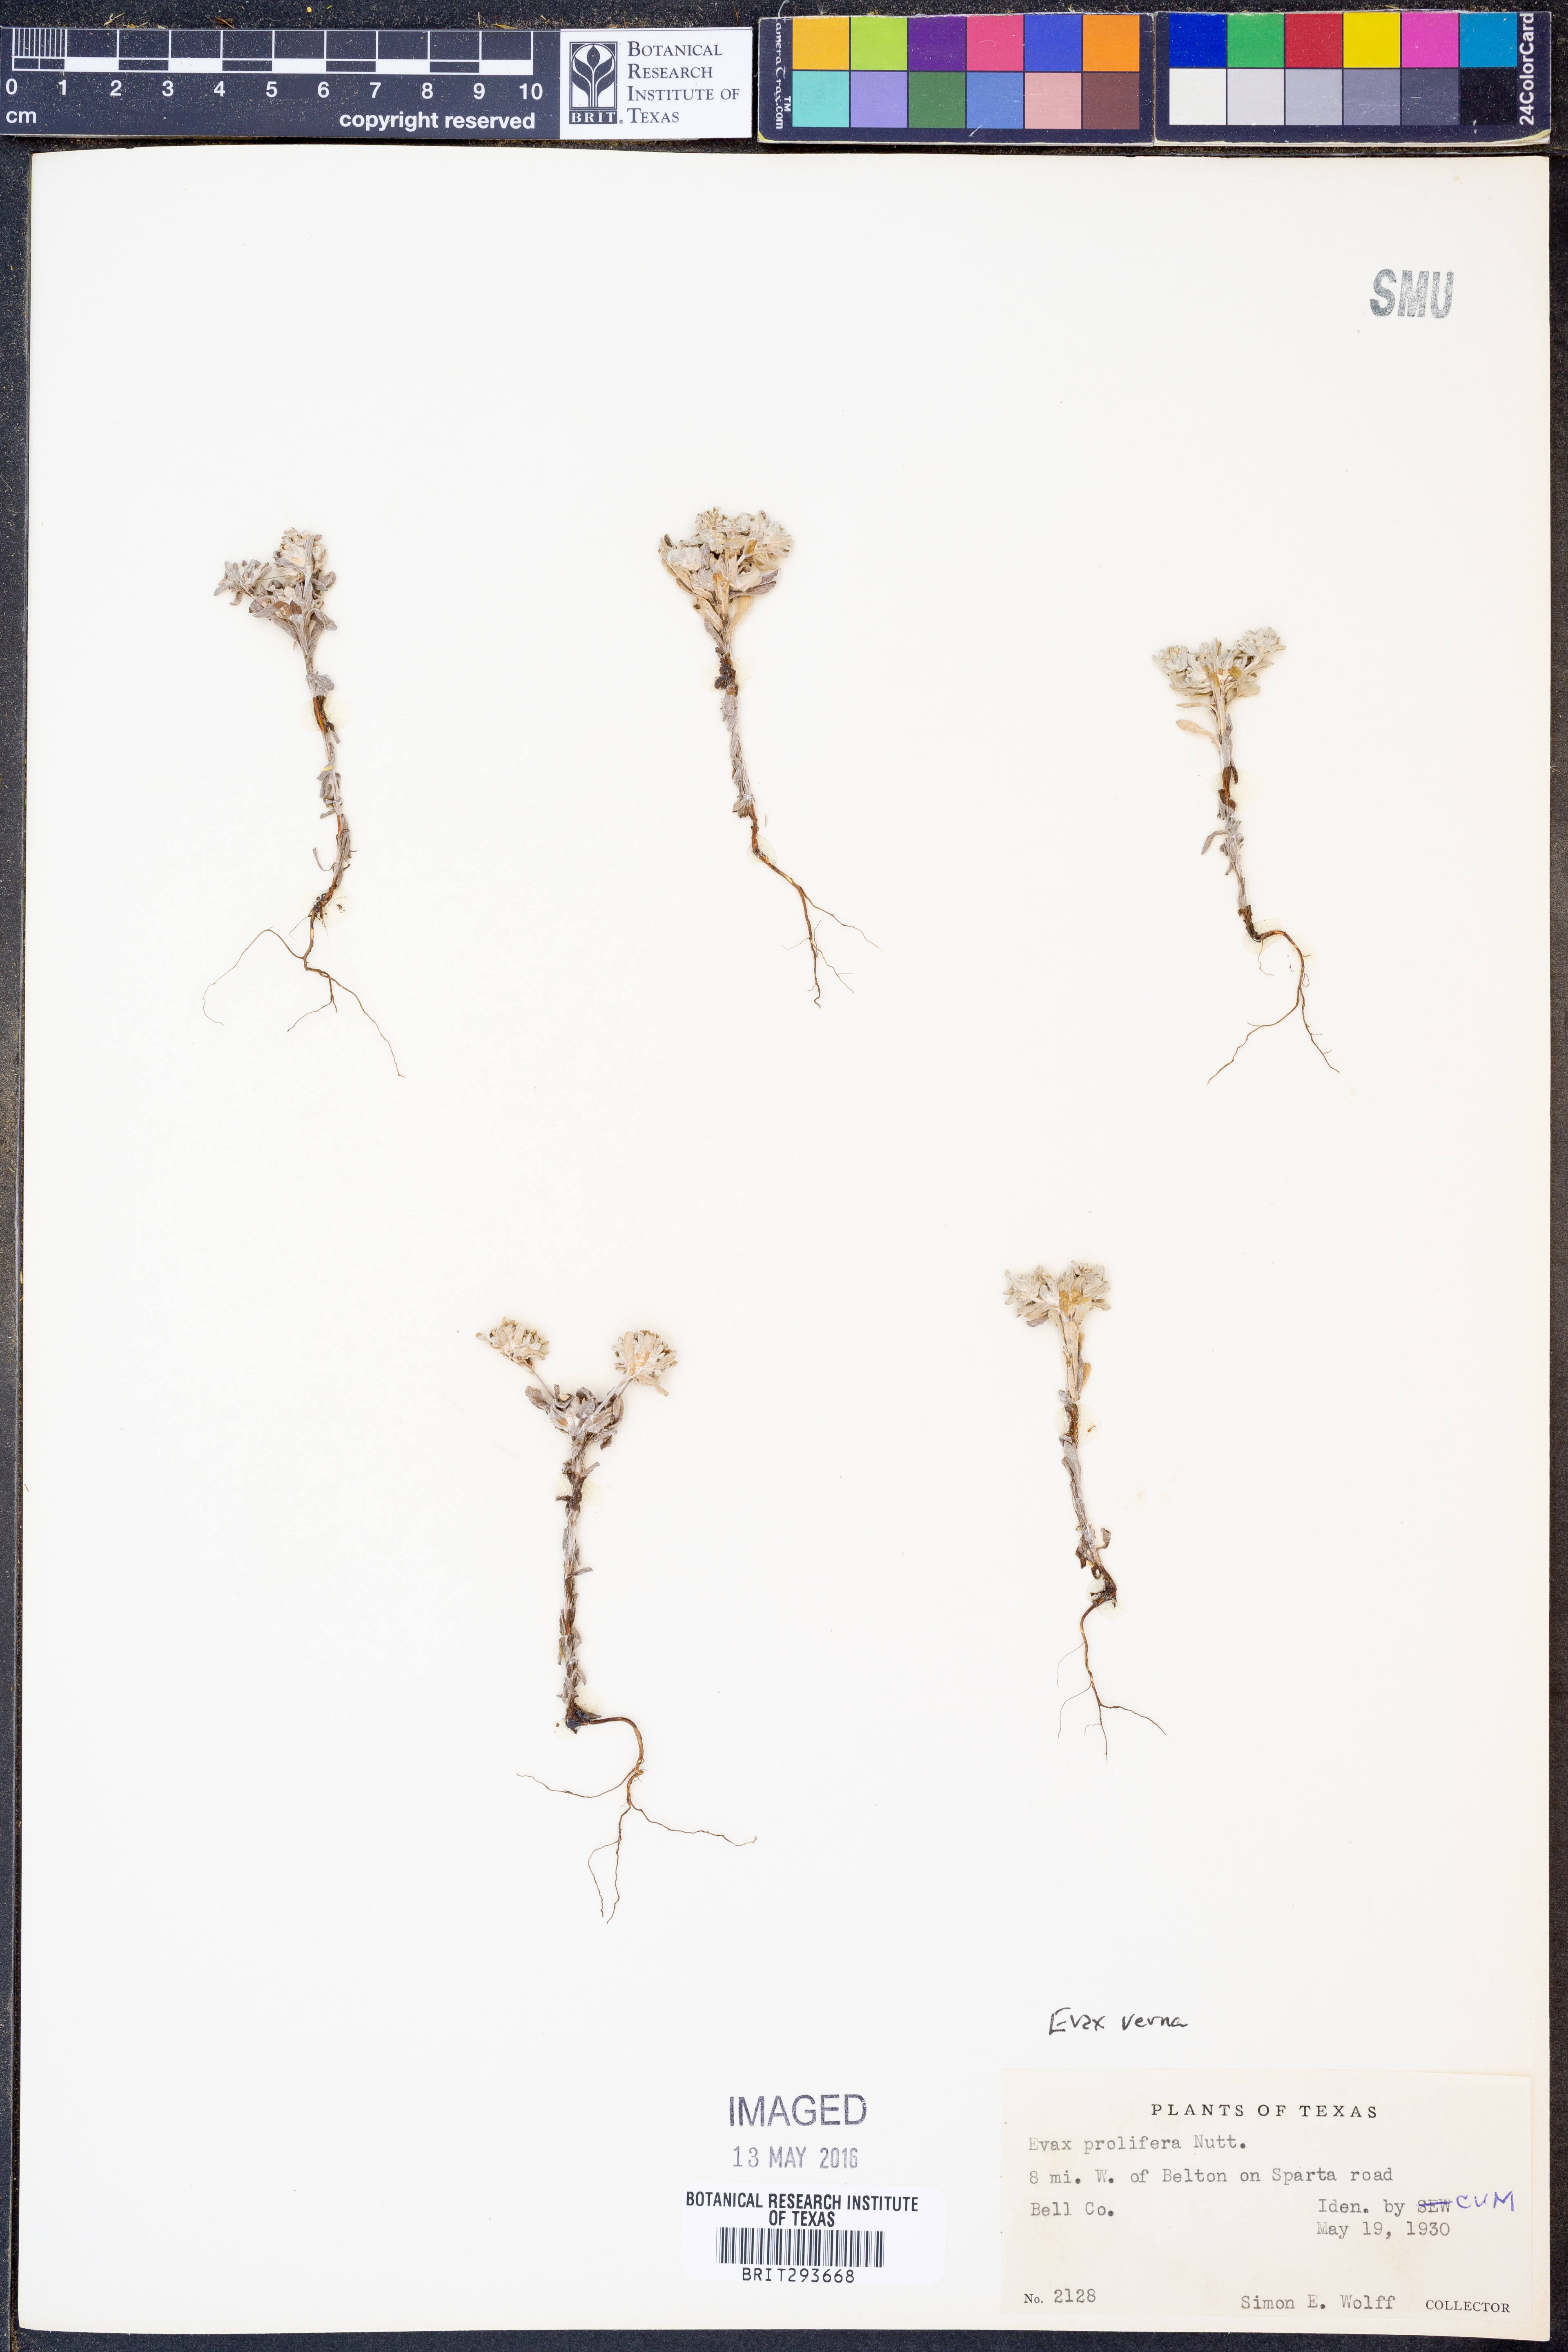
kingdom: Plantae
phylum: Tracheophyta
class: Magnoliopsida
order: Asterales
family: Asteraceae
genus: Diaperia
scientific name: Diaperia verna
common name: Many-stem rabbit-tobacco
